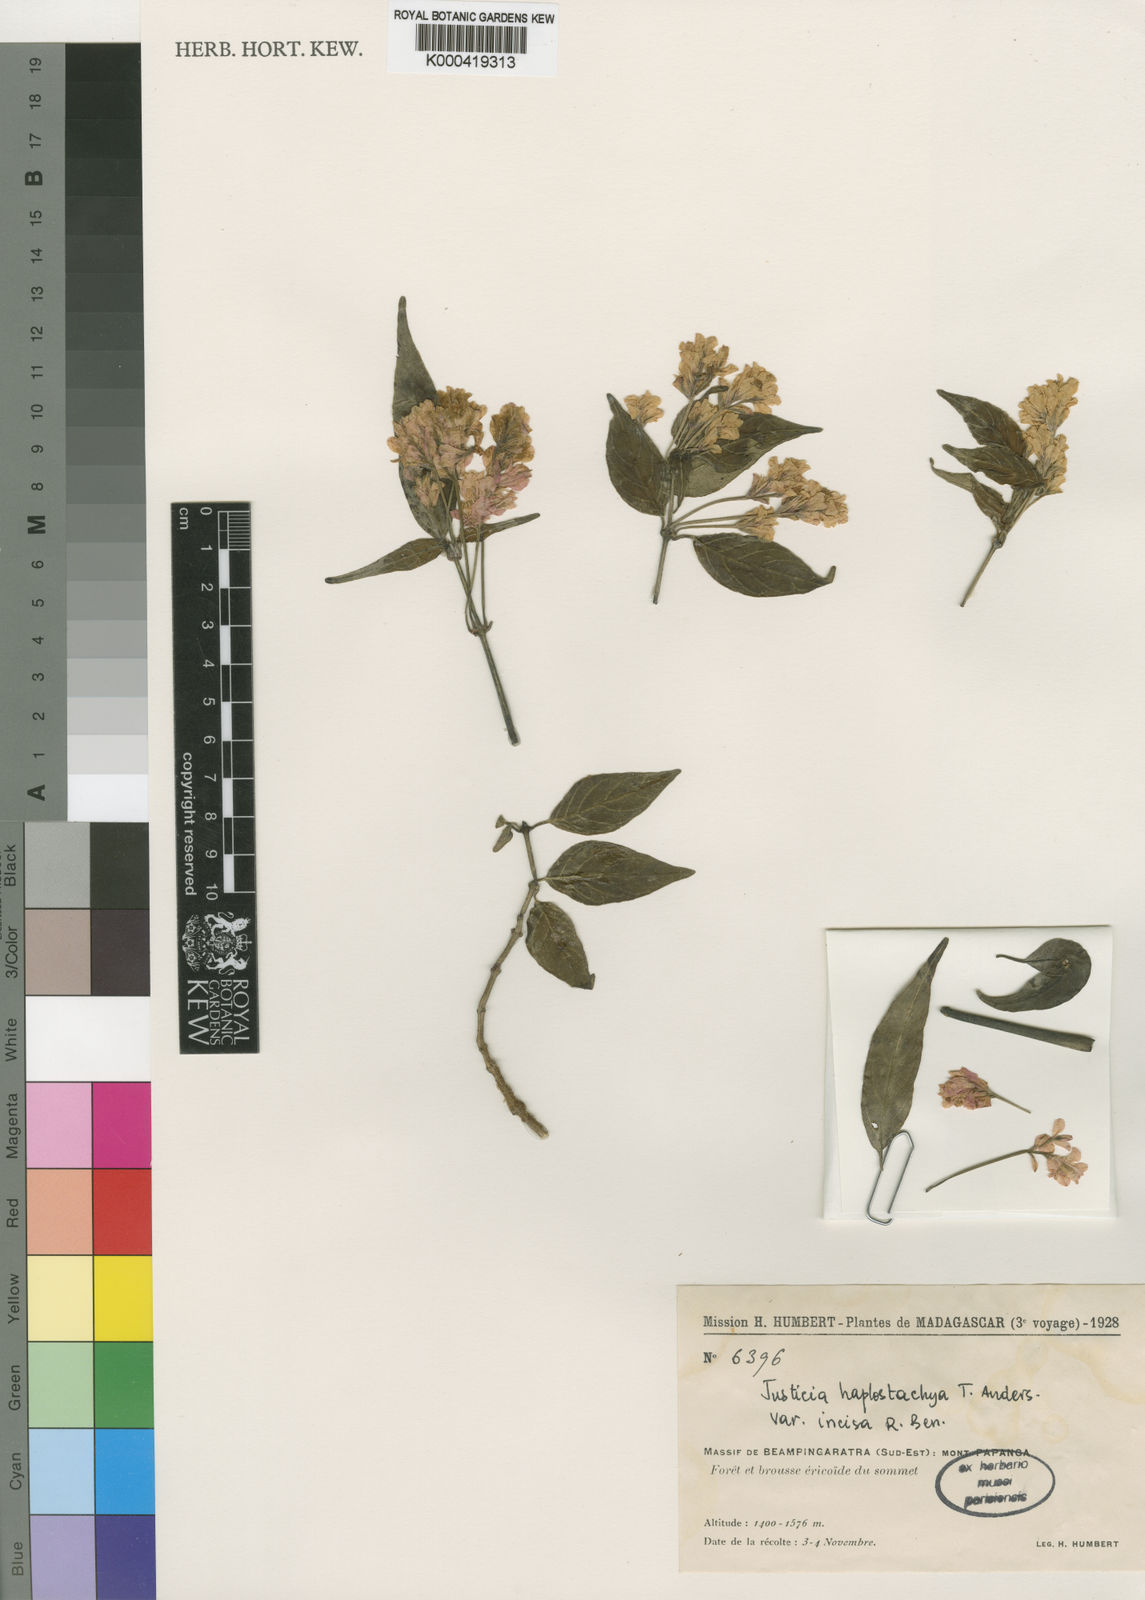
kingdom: Plantae
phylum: Tracheophyta
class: Magnoliopsida
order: Lamiales
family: Acanthaceae
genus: Anisostachya
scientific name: Anisostachya haplostachya
